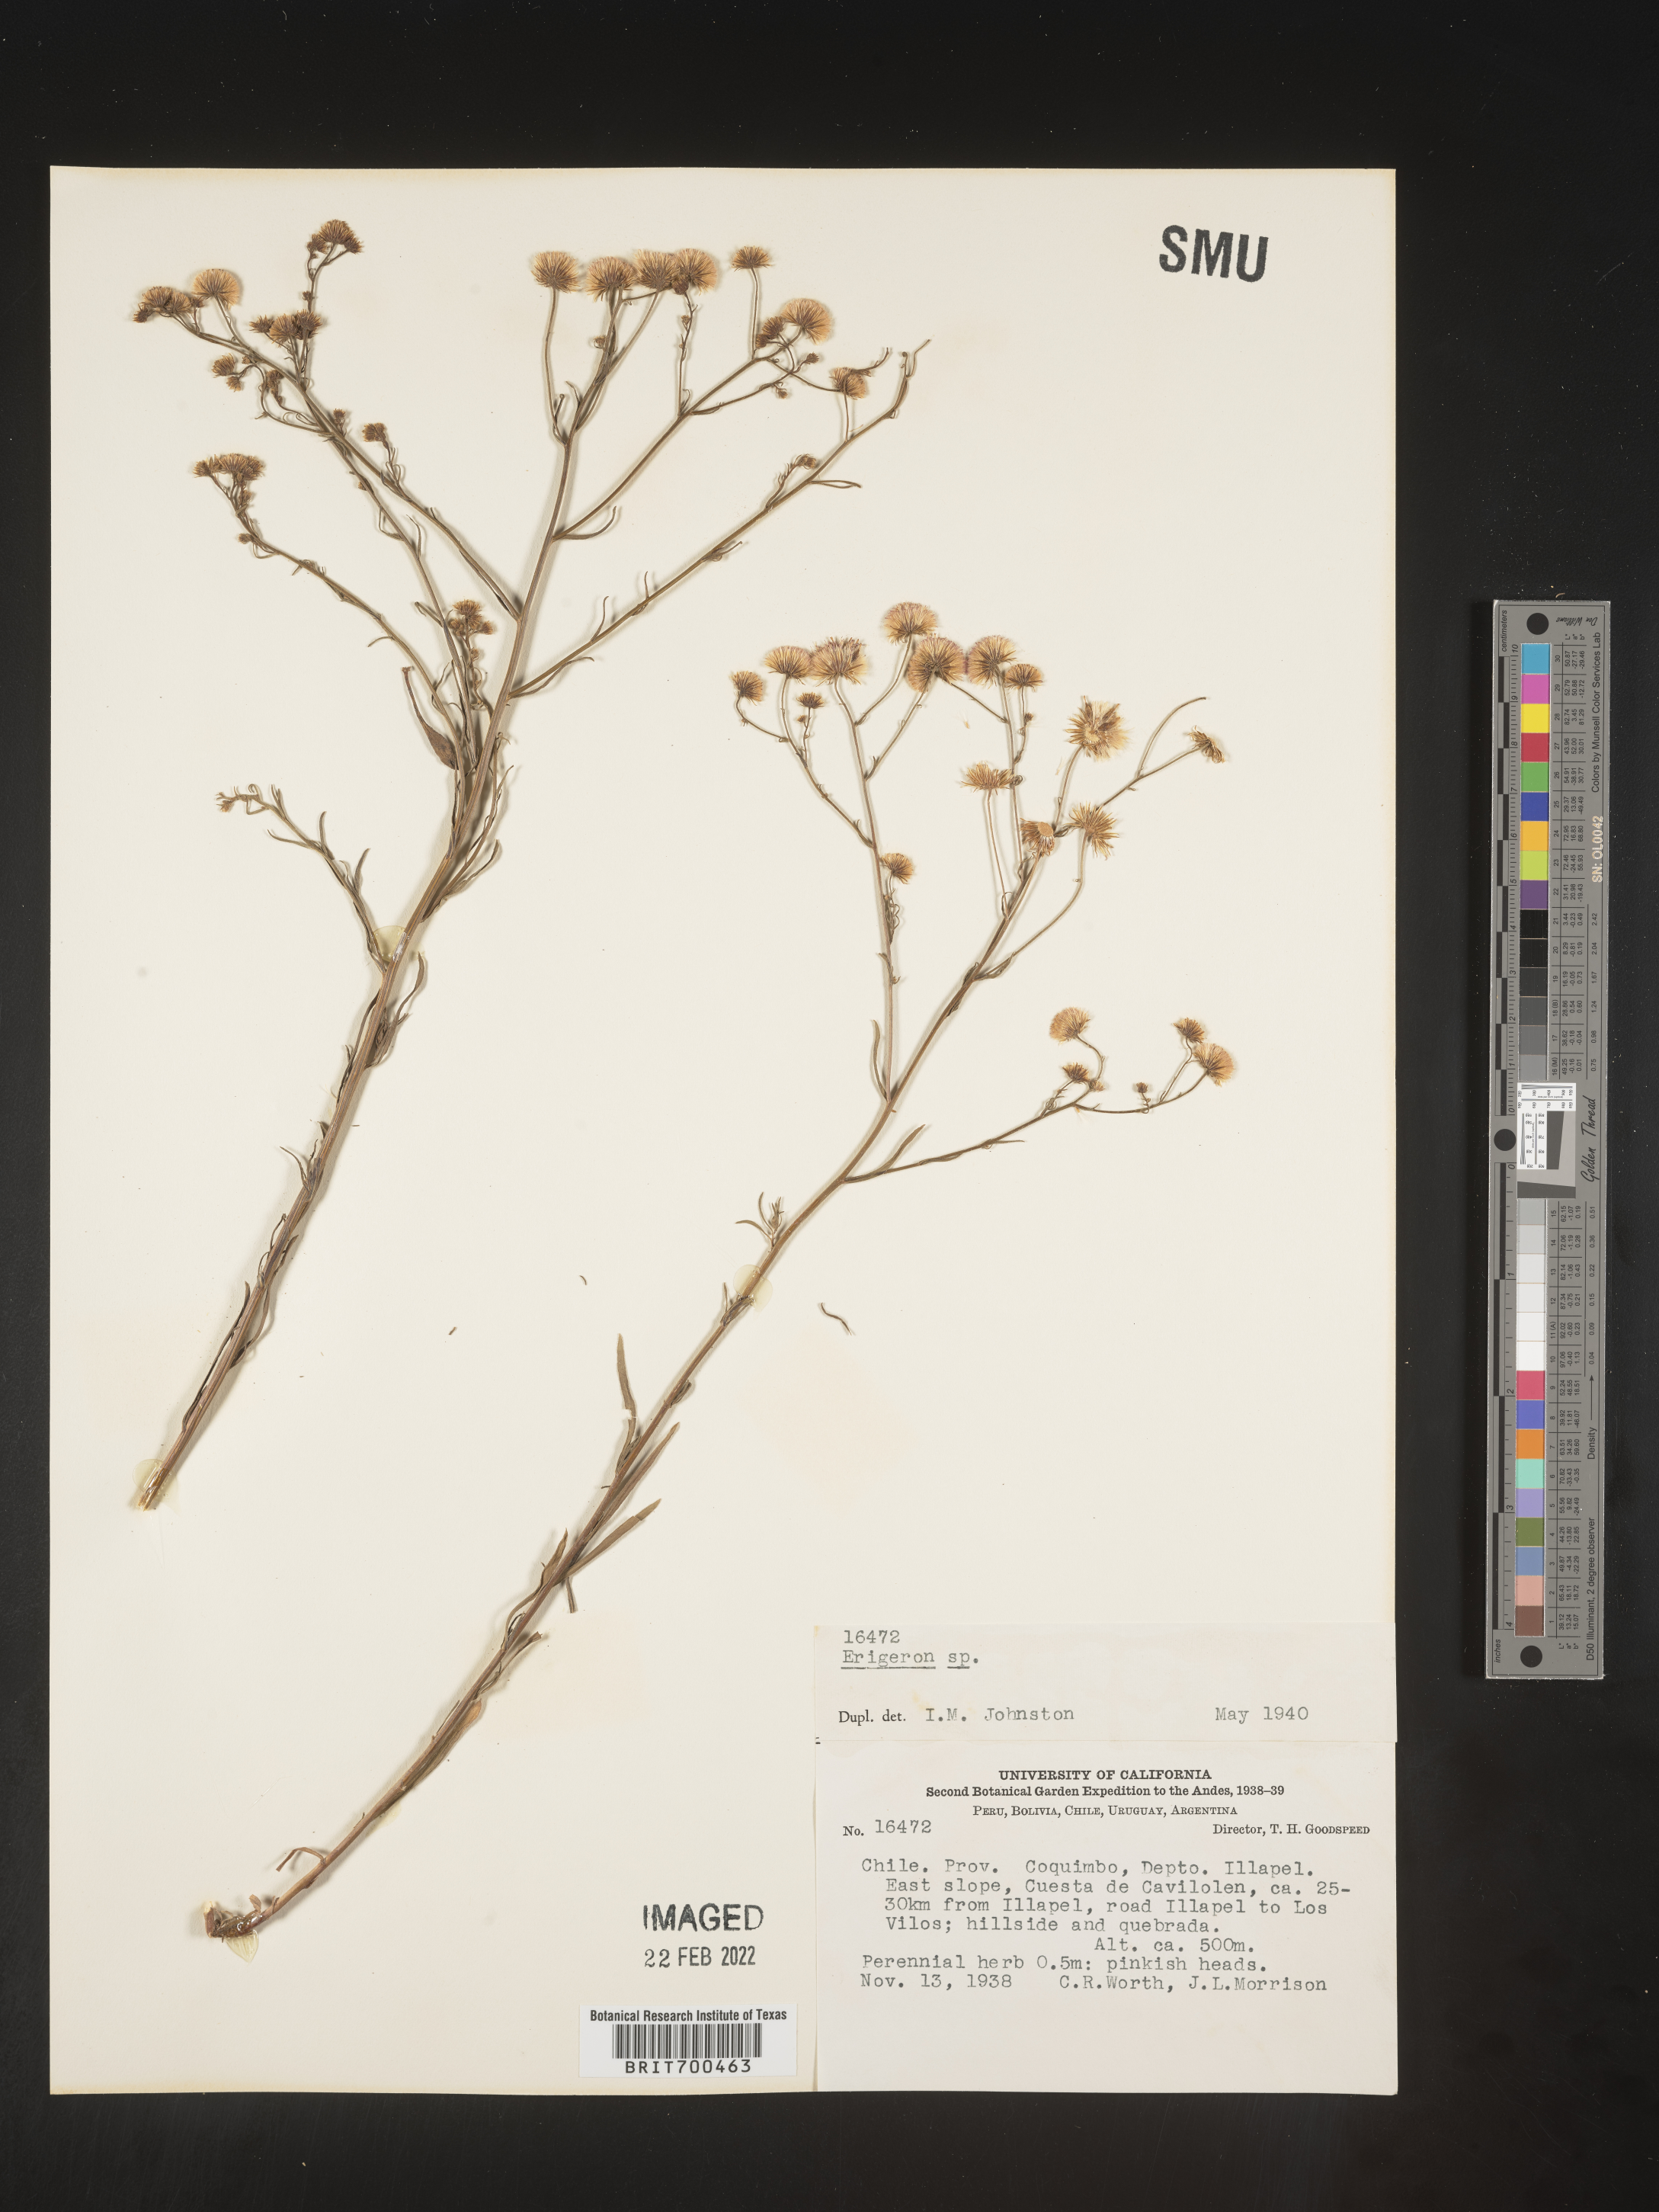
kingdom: Plantae
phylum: Tracheophyta
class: Magnoliopsida
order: Asterales
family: Asteraceae
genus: Erigeron
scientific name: Erigeron
